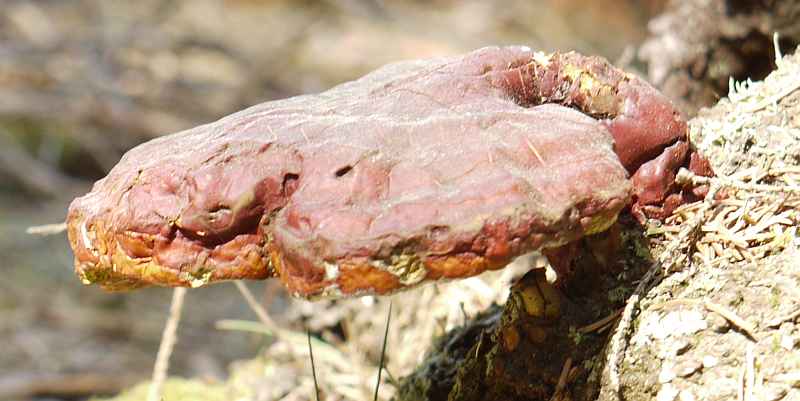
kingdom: Fungi
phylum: Basidiomycota
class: Agaricomycetes
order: Polyporales
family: Polyporaceae
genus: Ganoderma
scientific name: Ganoderma lucidum
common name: skinnende lakporesvamp
